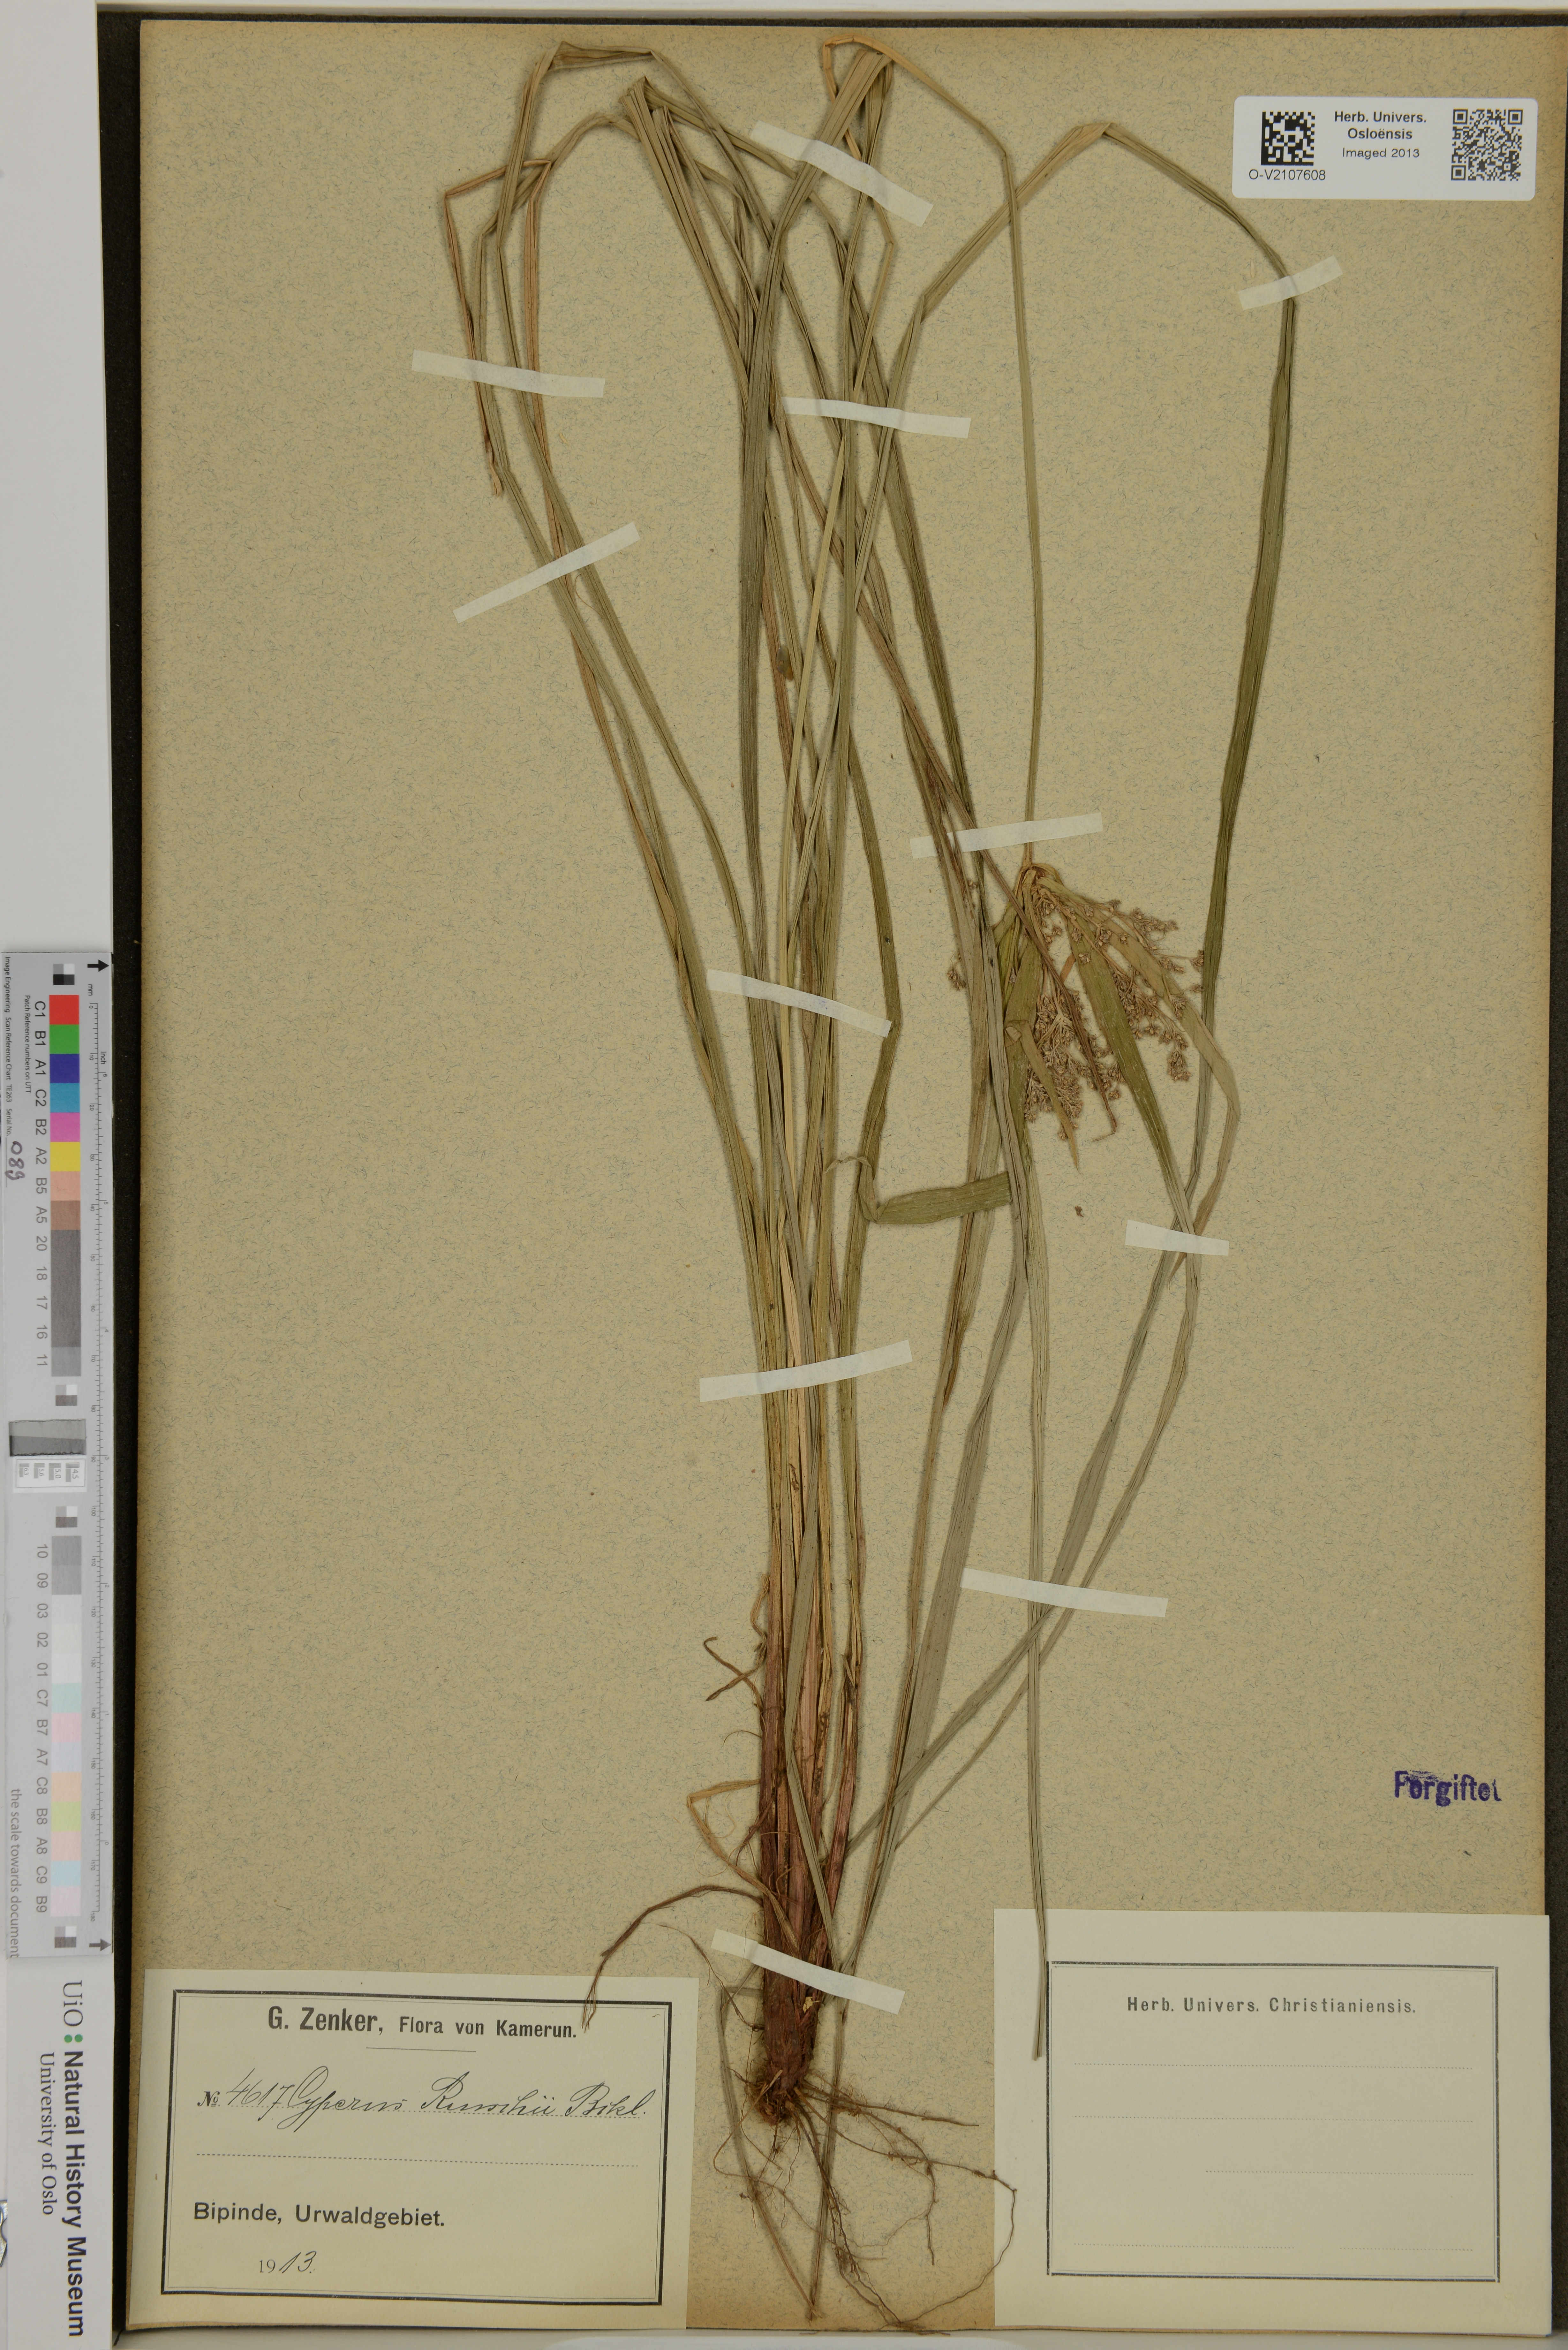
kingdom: Plantae
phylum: Tracheophyta
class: Liliopsida
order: Poales
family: Cyperaceae
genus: Cyperus
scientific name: Cyperus renschii
